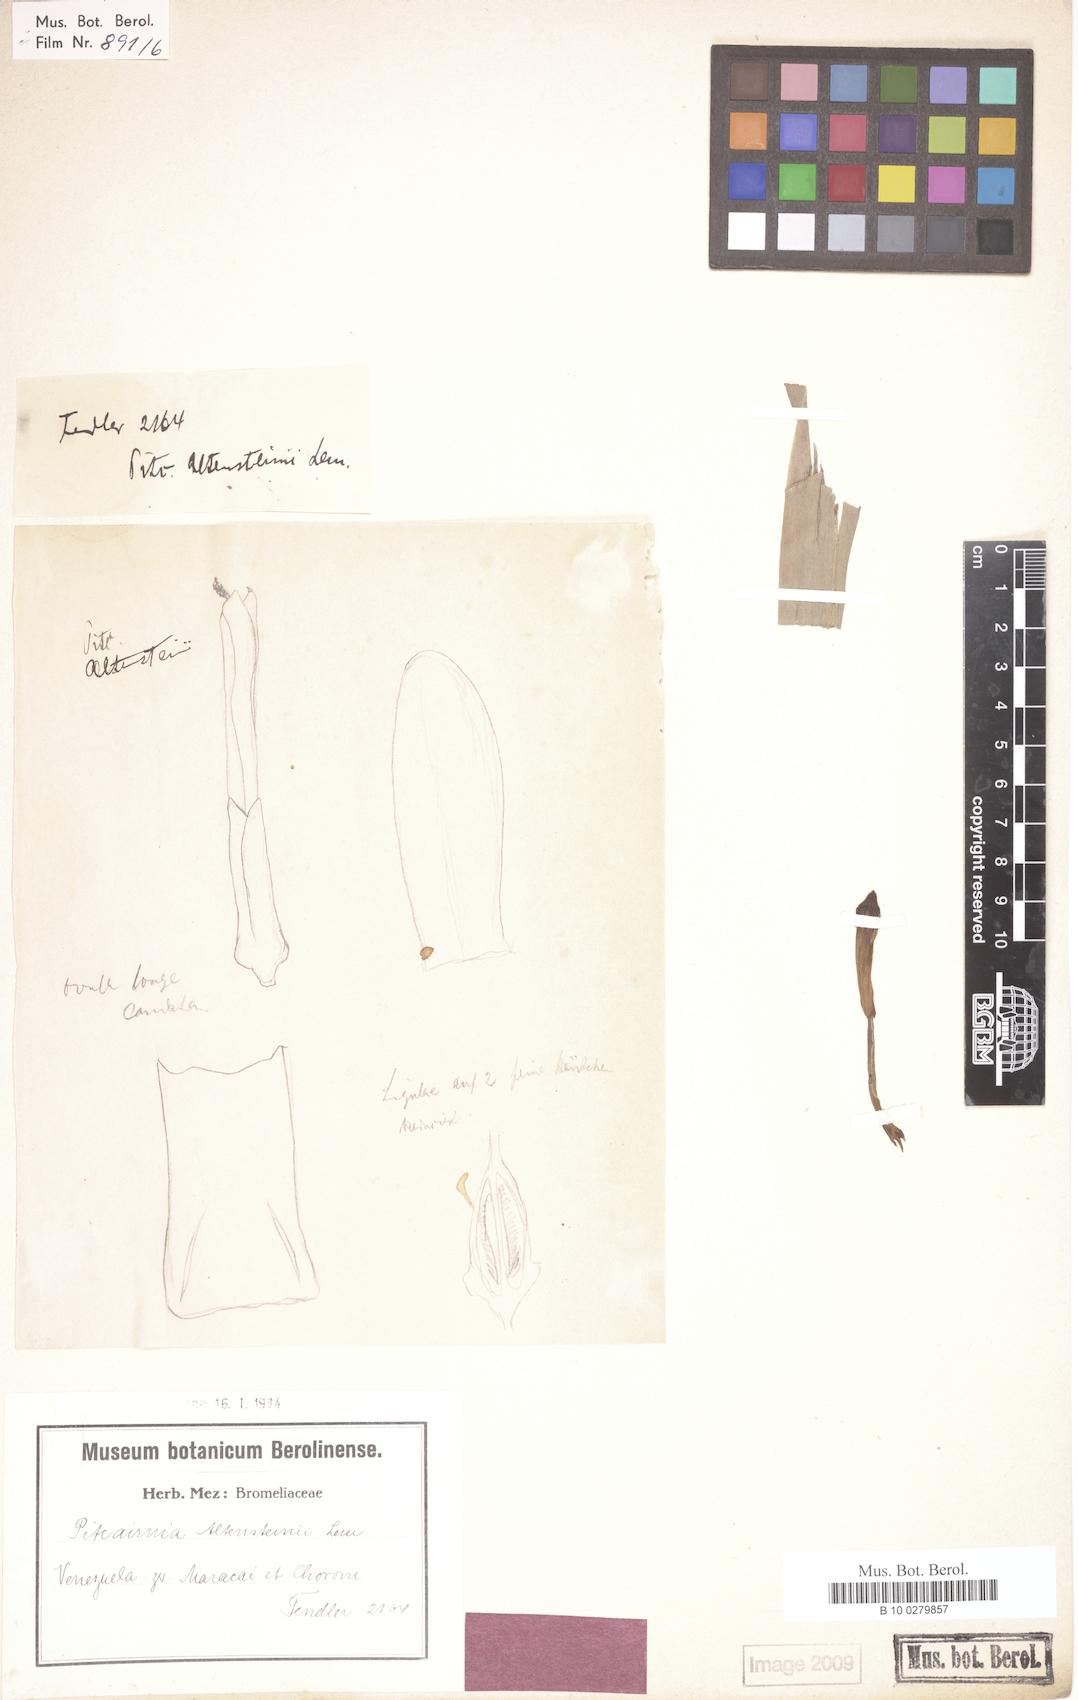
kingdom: Plantae
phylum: Tracheophyta
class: Liliopsida
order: Poales
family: Bromeliaceae
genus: Pitcairnia
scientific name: Pitcairnia altensteinii
